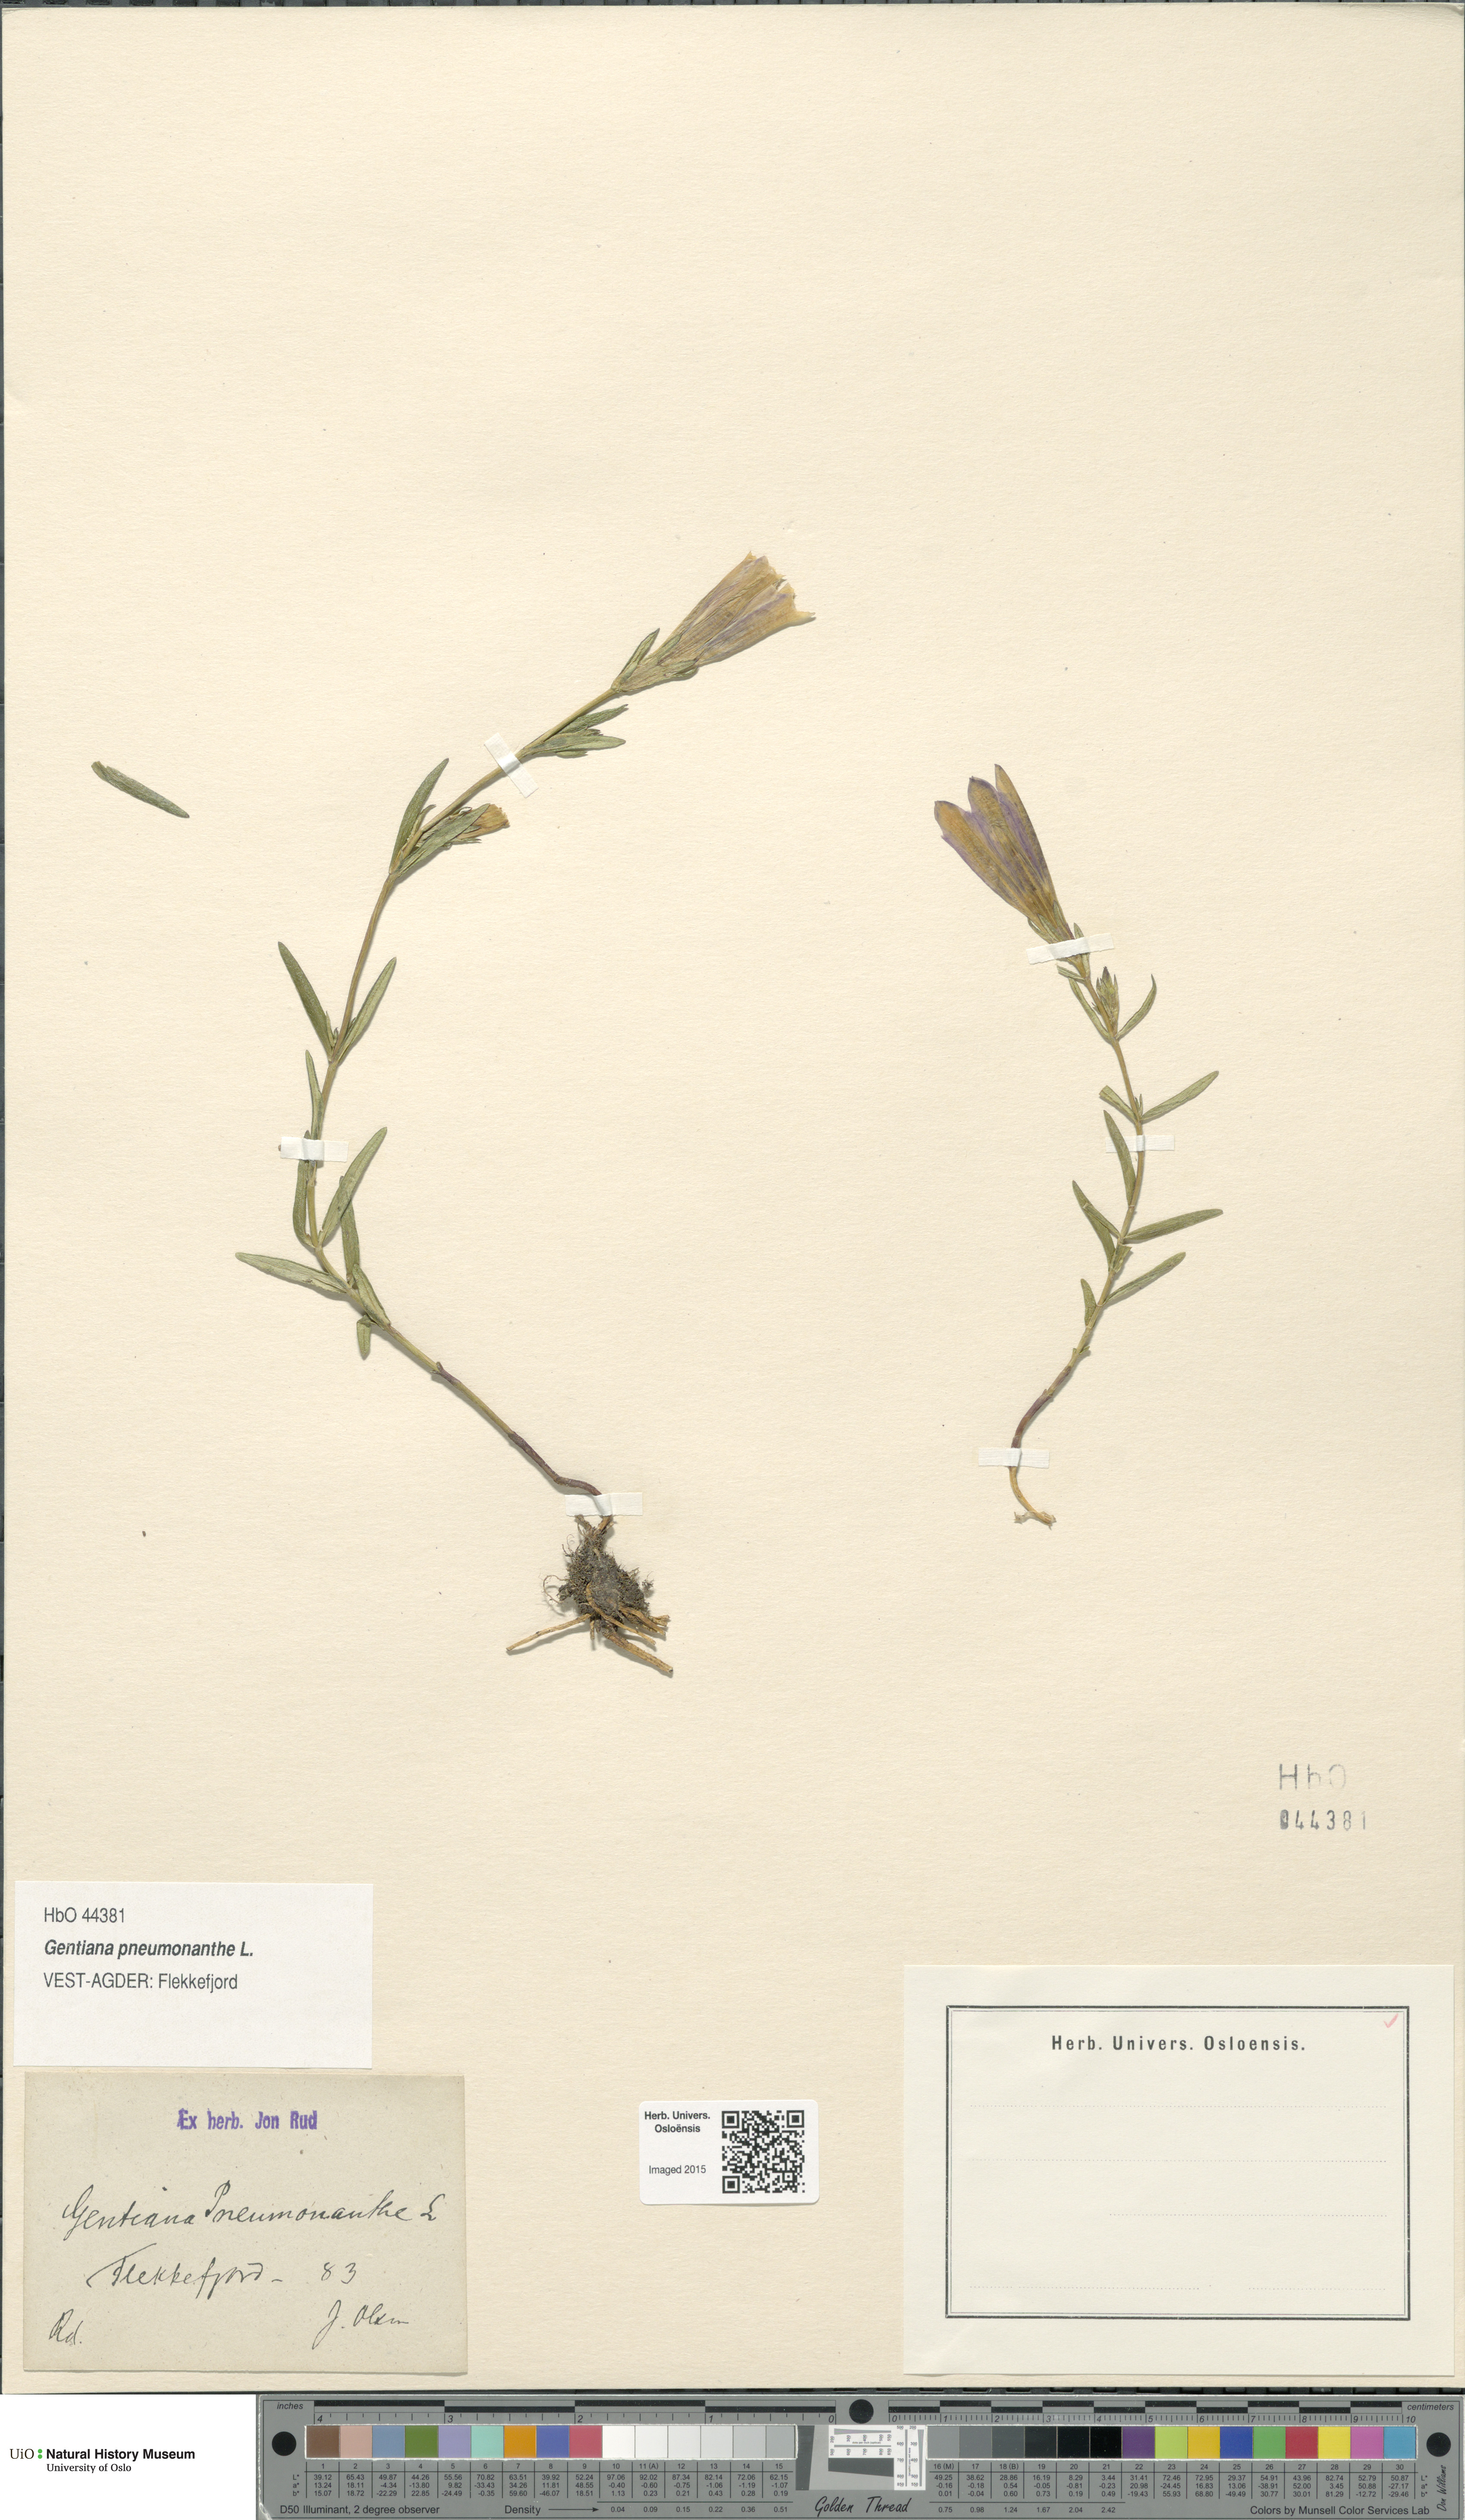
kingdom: Plantae
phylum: Tracheophyta
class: Magnoliopsida
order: Gentianales
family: Gentianaceae
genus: Gentiana
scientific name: Gentiana pneumonanthe
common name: Marsh gentian
